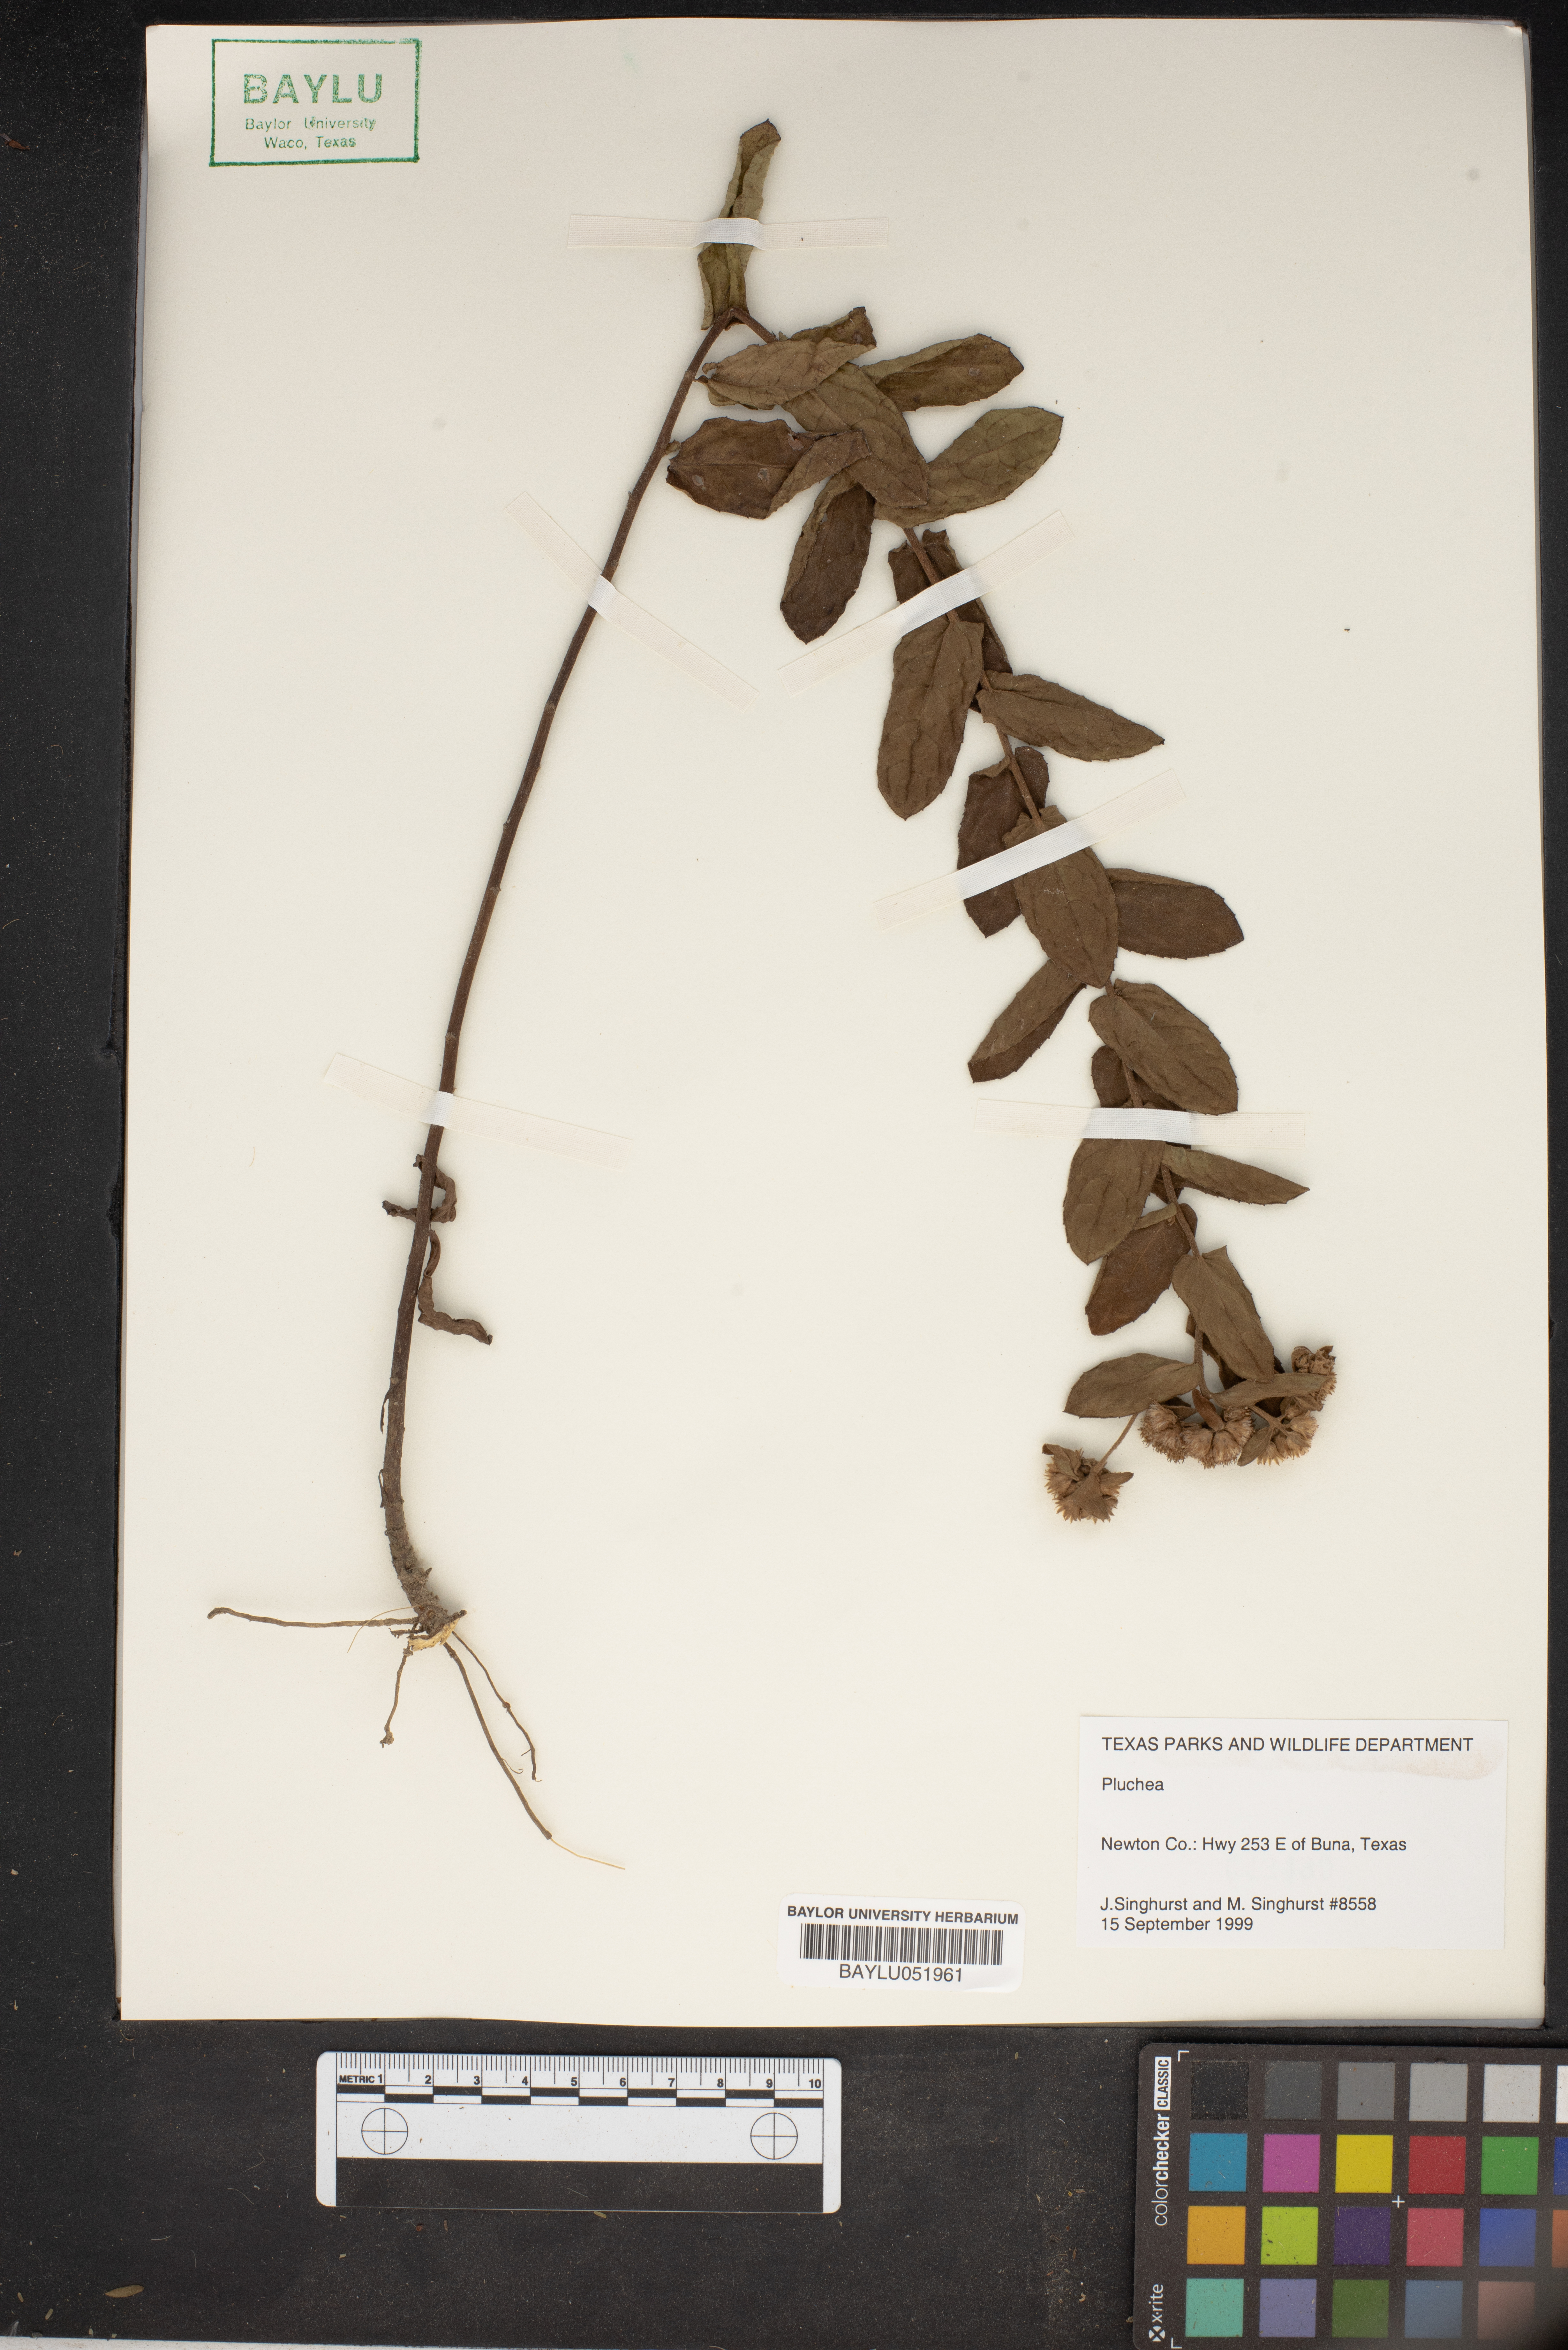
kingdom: Plantae
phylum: Tracheophyta
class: Magnoliopsida
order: Asterales
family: Asteraceae
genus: Pluchea
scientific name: Pluchea
